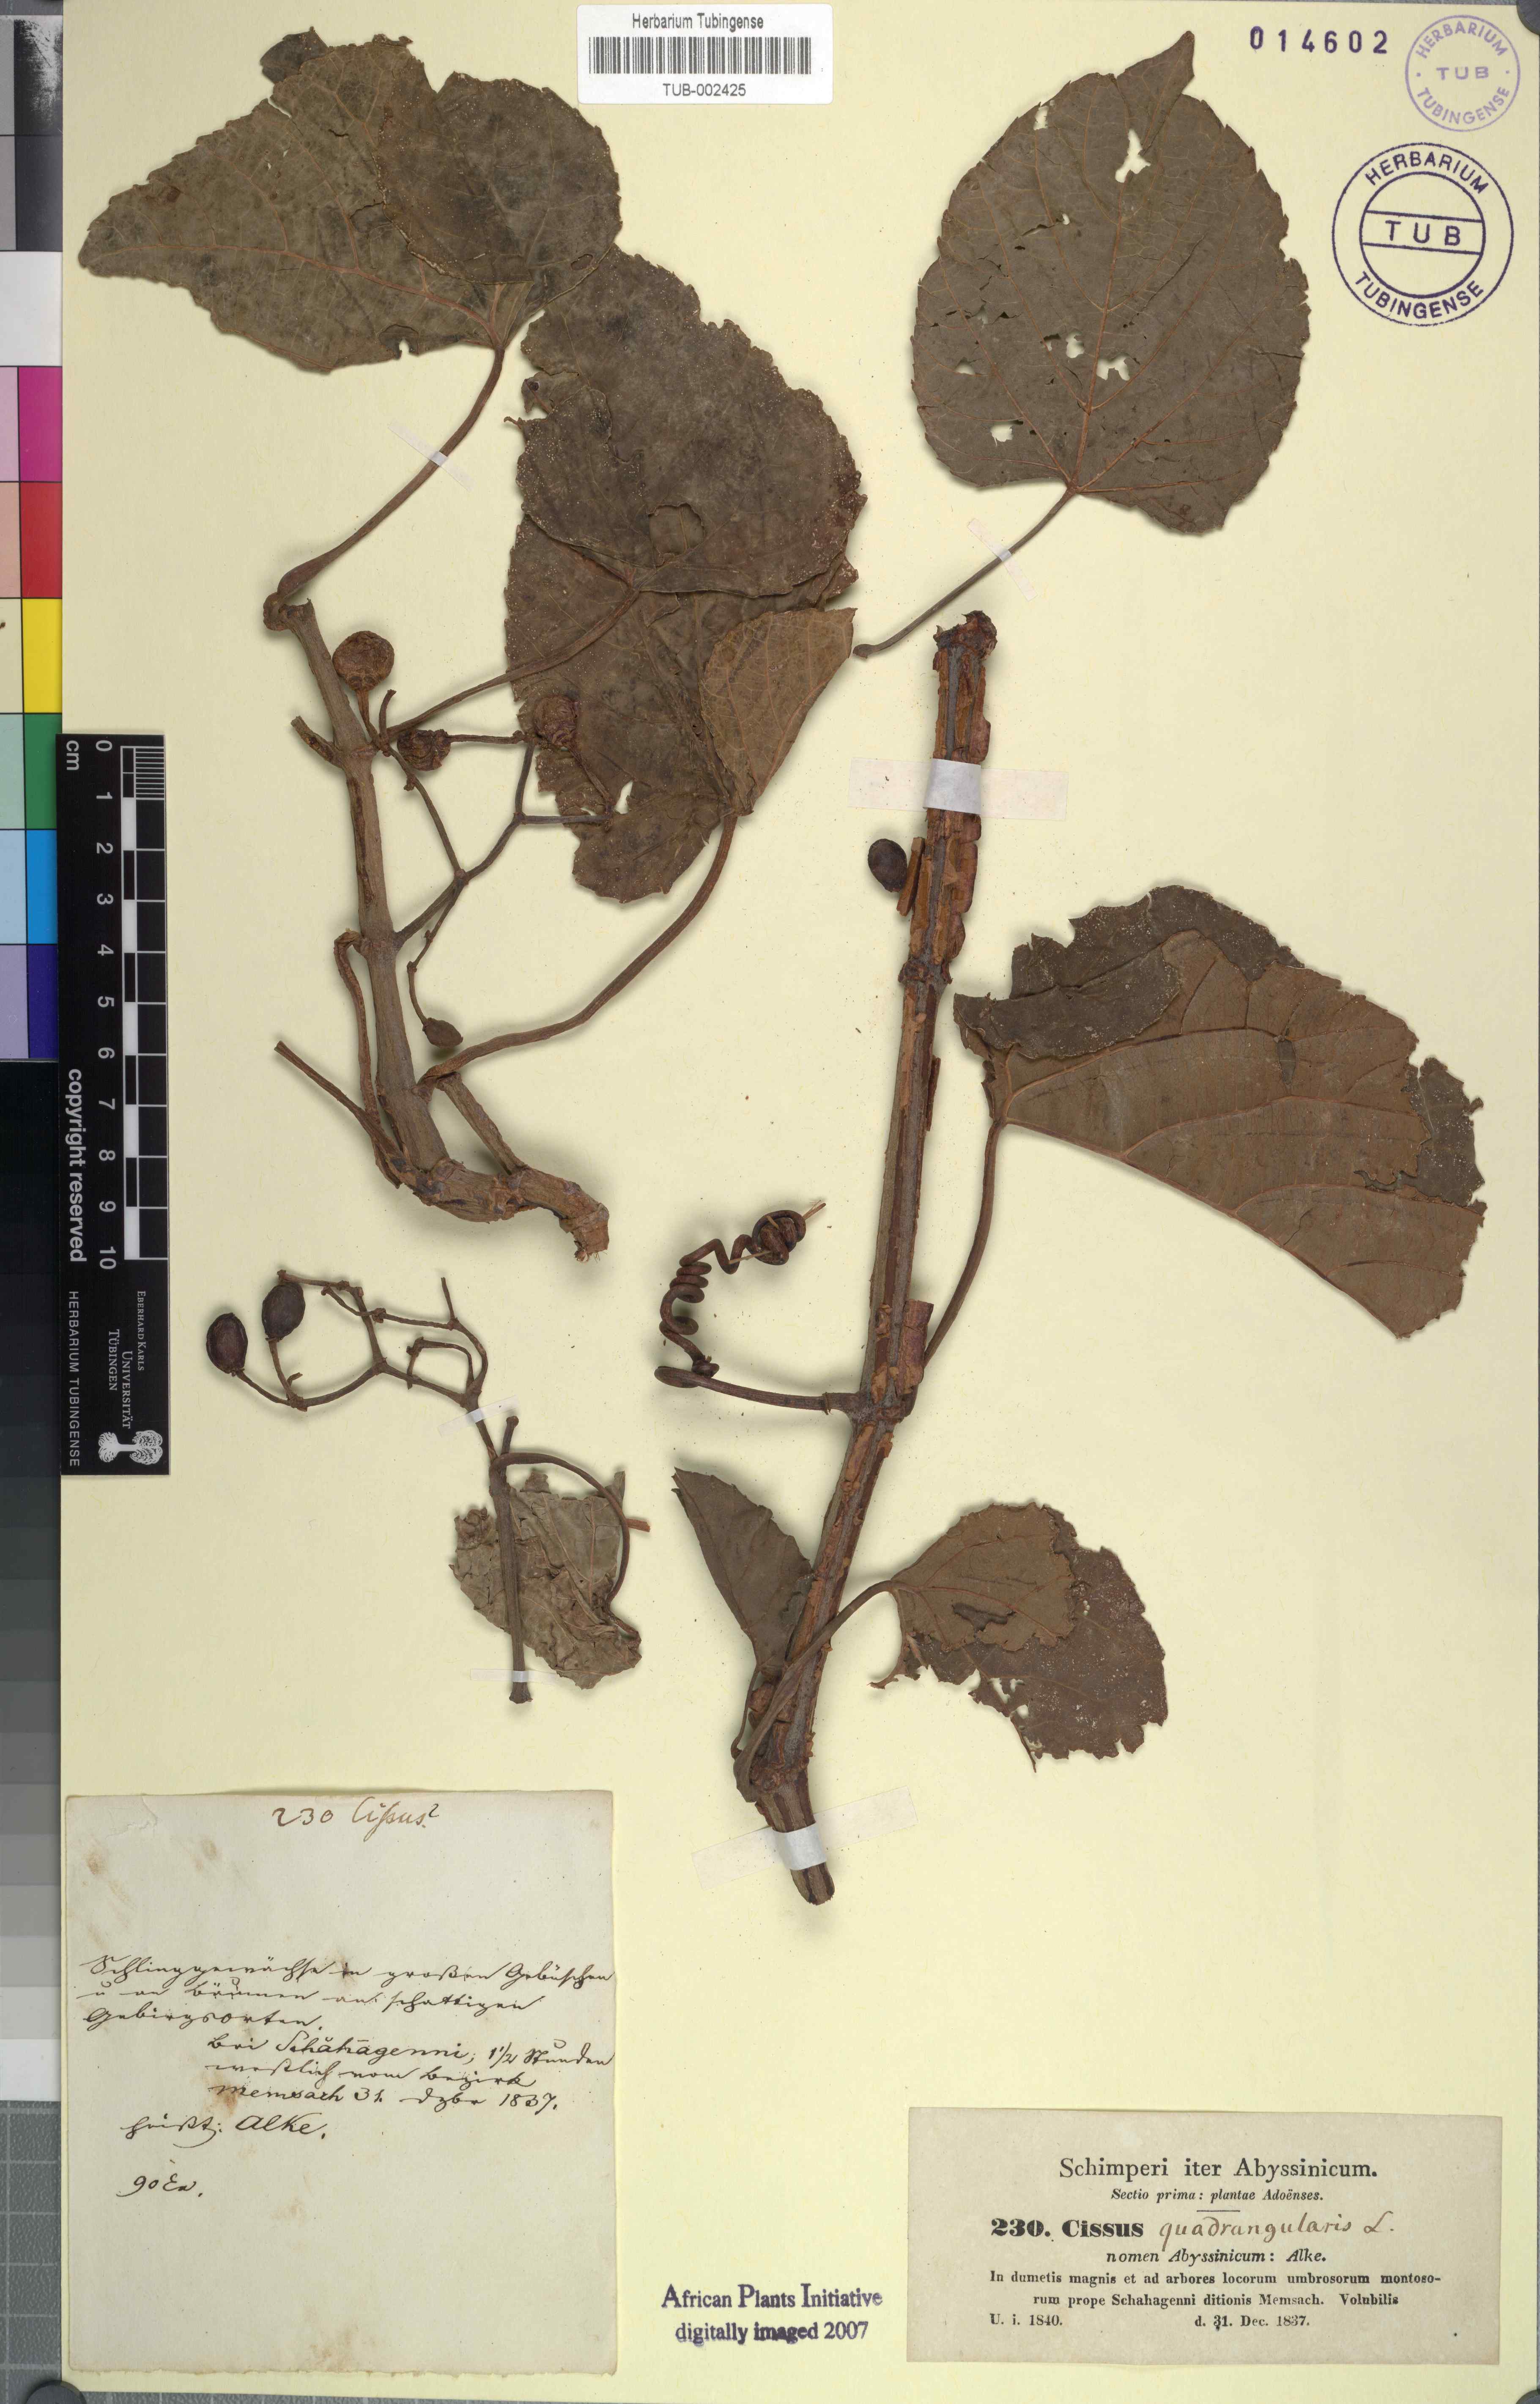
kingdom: Plantae
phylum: Tracheophyta
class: Magnoliopsida
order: Vitales
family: Vitaceae
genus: Cissus
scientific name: Cissus quadrangularis
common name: Veldt-grape
